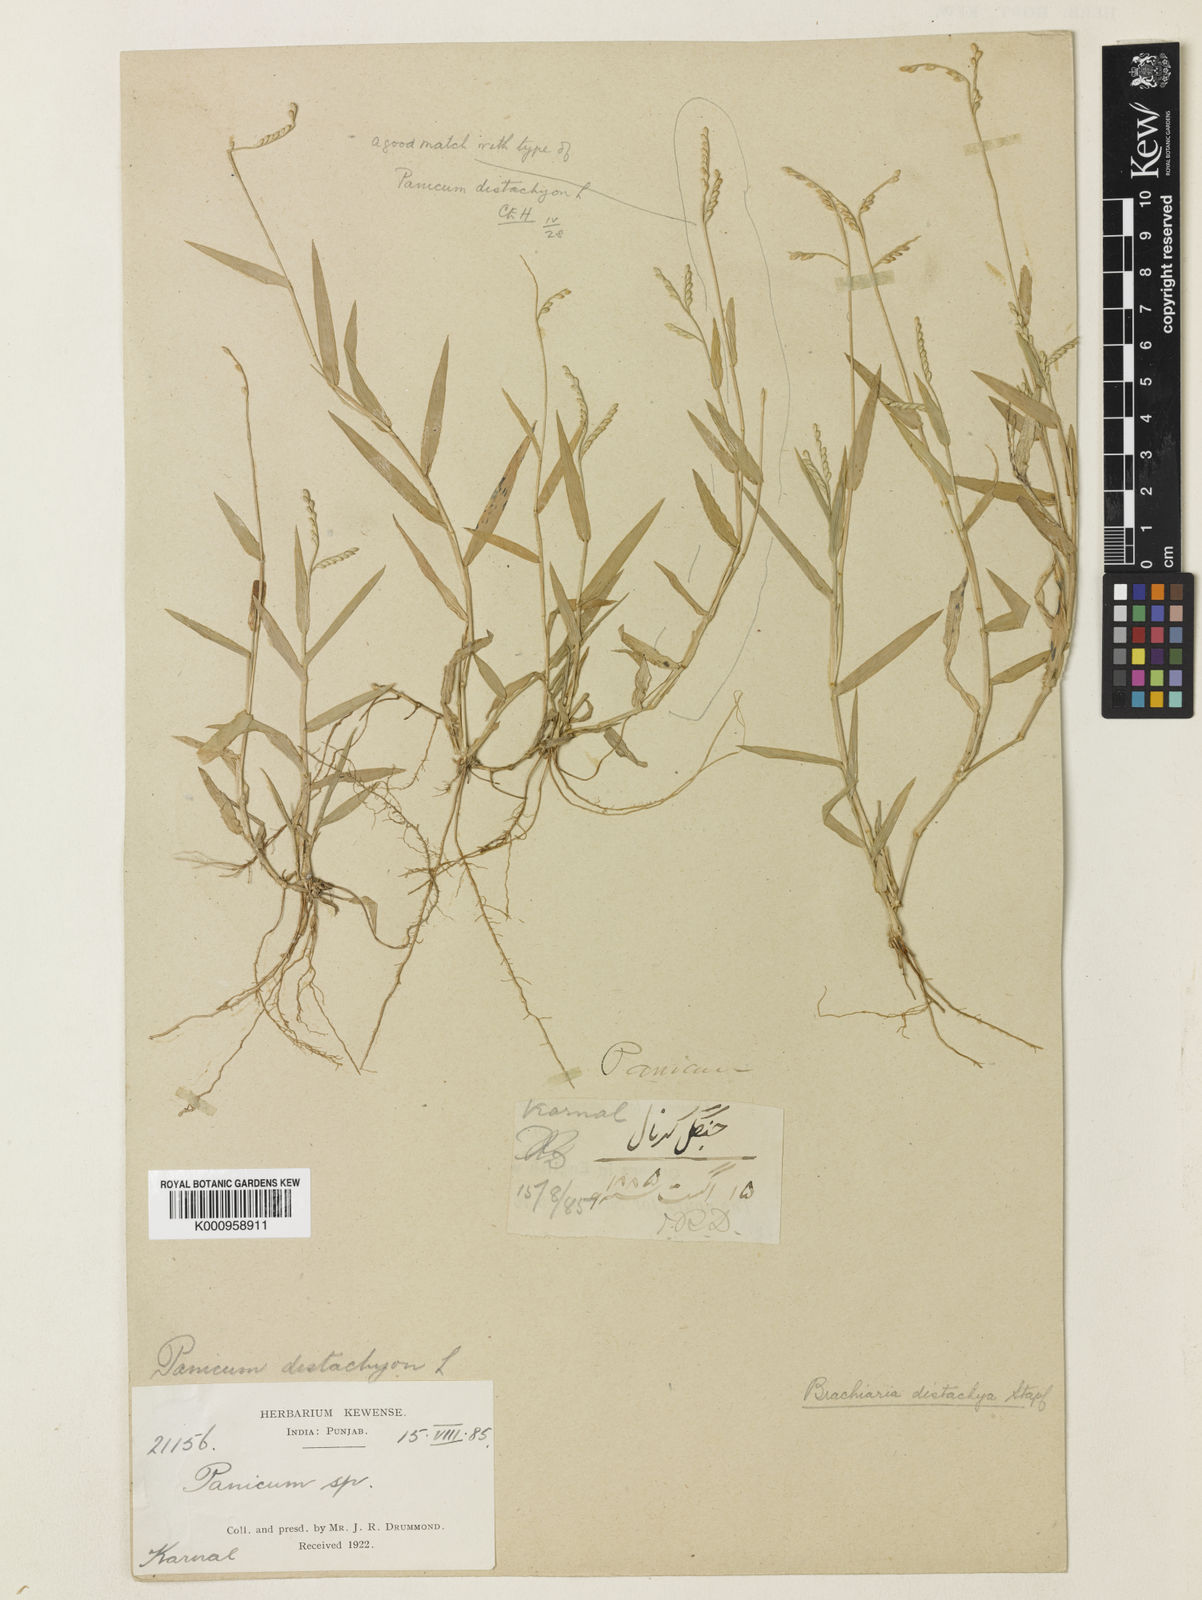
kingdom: Plantae
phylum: Tracheophyta
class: Liliopsida
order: Poales
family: Poaceae
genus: Urochloa
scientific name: Urochloa distachyos
